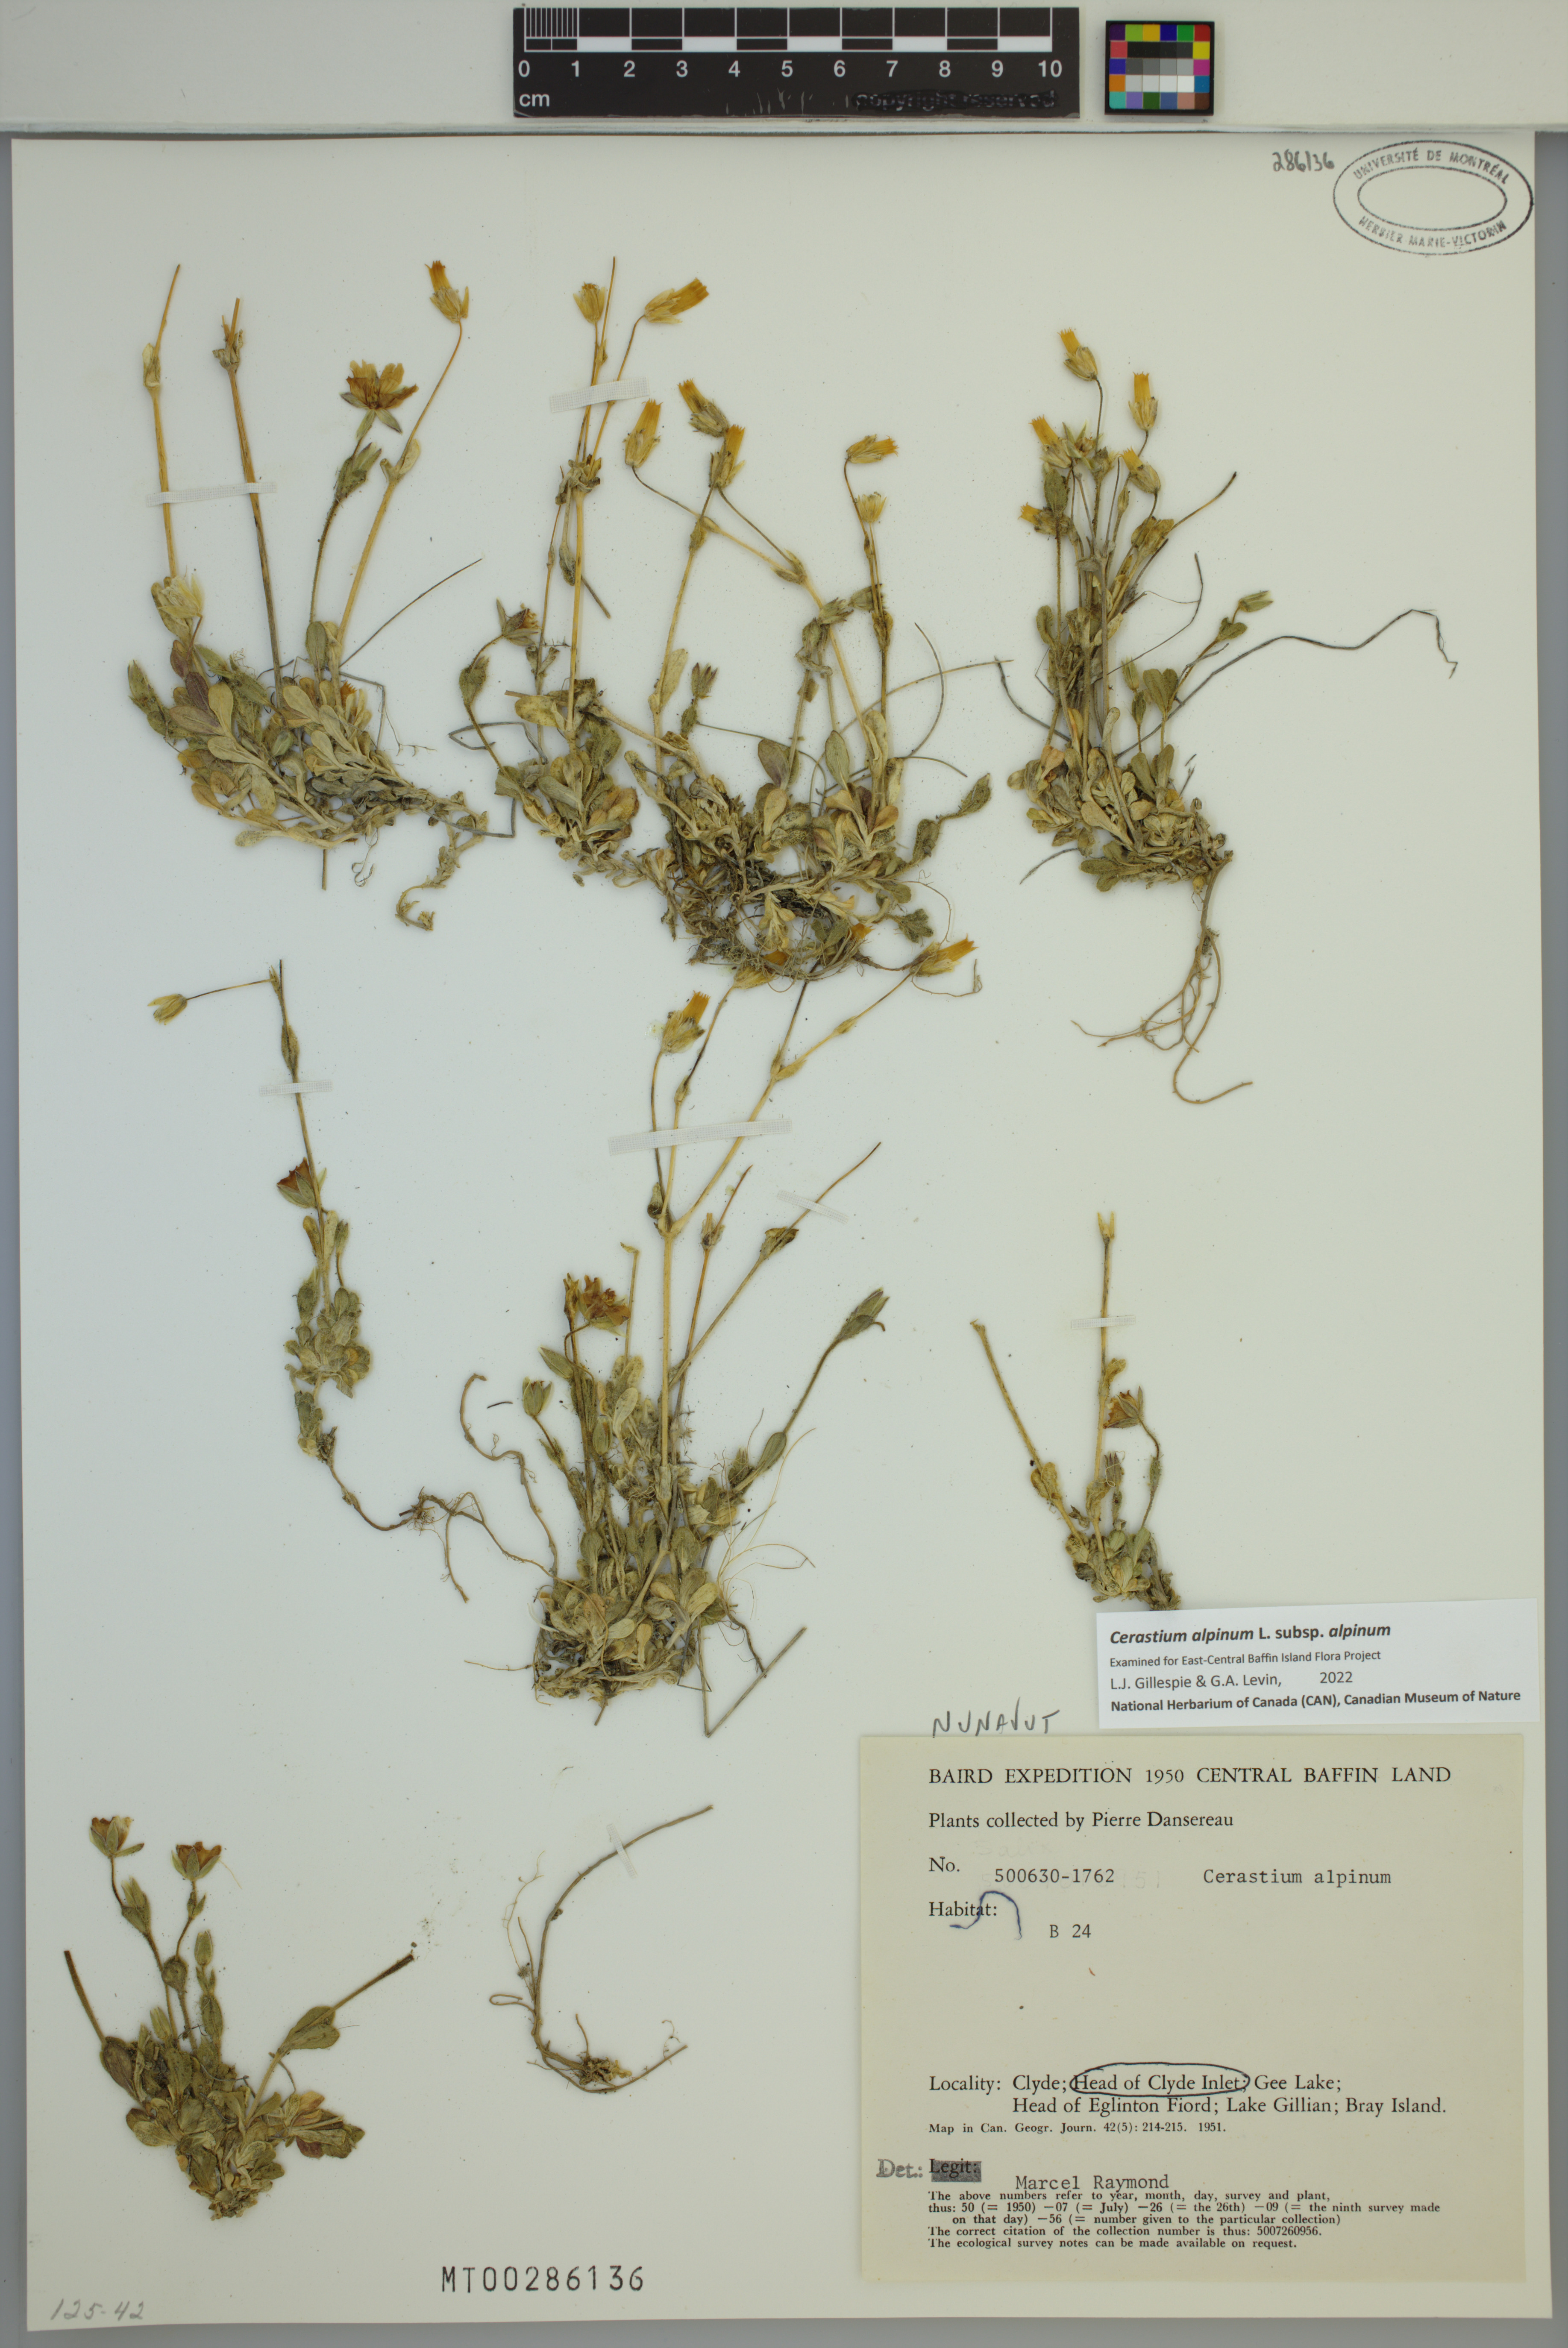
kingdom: Plantae
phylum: Tracheophyta
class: Magnoliopsida
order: Caryophyllales
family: Caryophyllaceae
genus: Cerastium
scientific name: Cerastium alpinum
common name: Alpine mouse-ear
